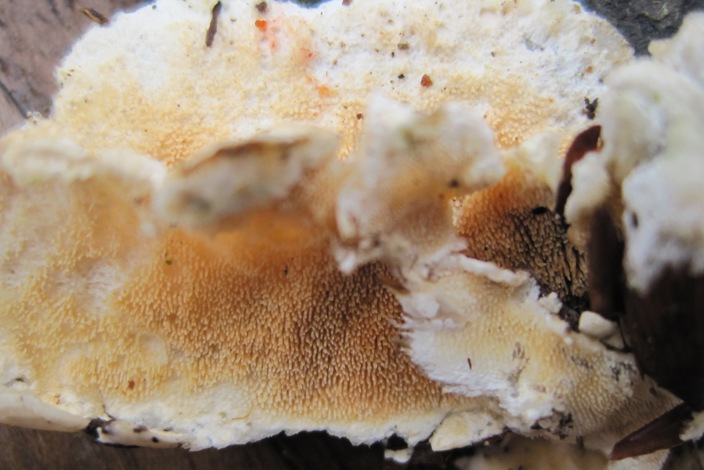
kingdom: Fungi
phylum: Basidiomycota
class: Agaricomycetes
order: Polyporales
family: Steccherinaceae
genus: Steccherinum
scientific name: Steccherinum ochraceum
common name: almindelig skønpig
